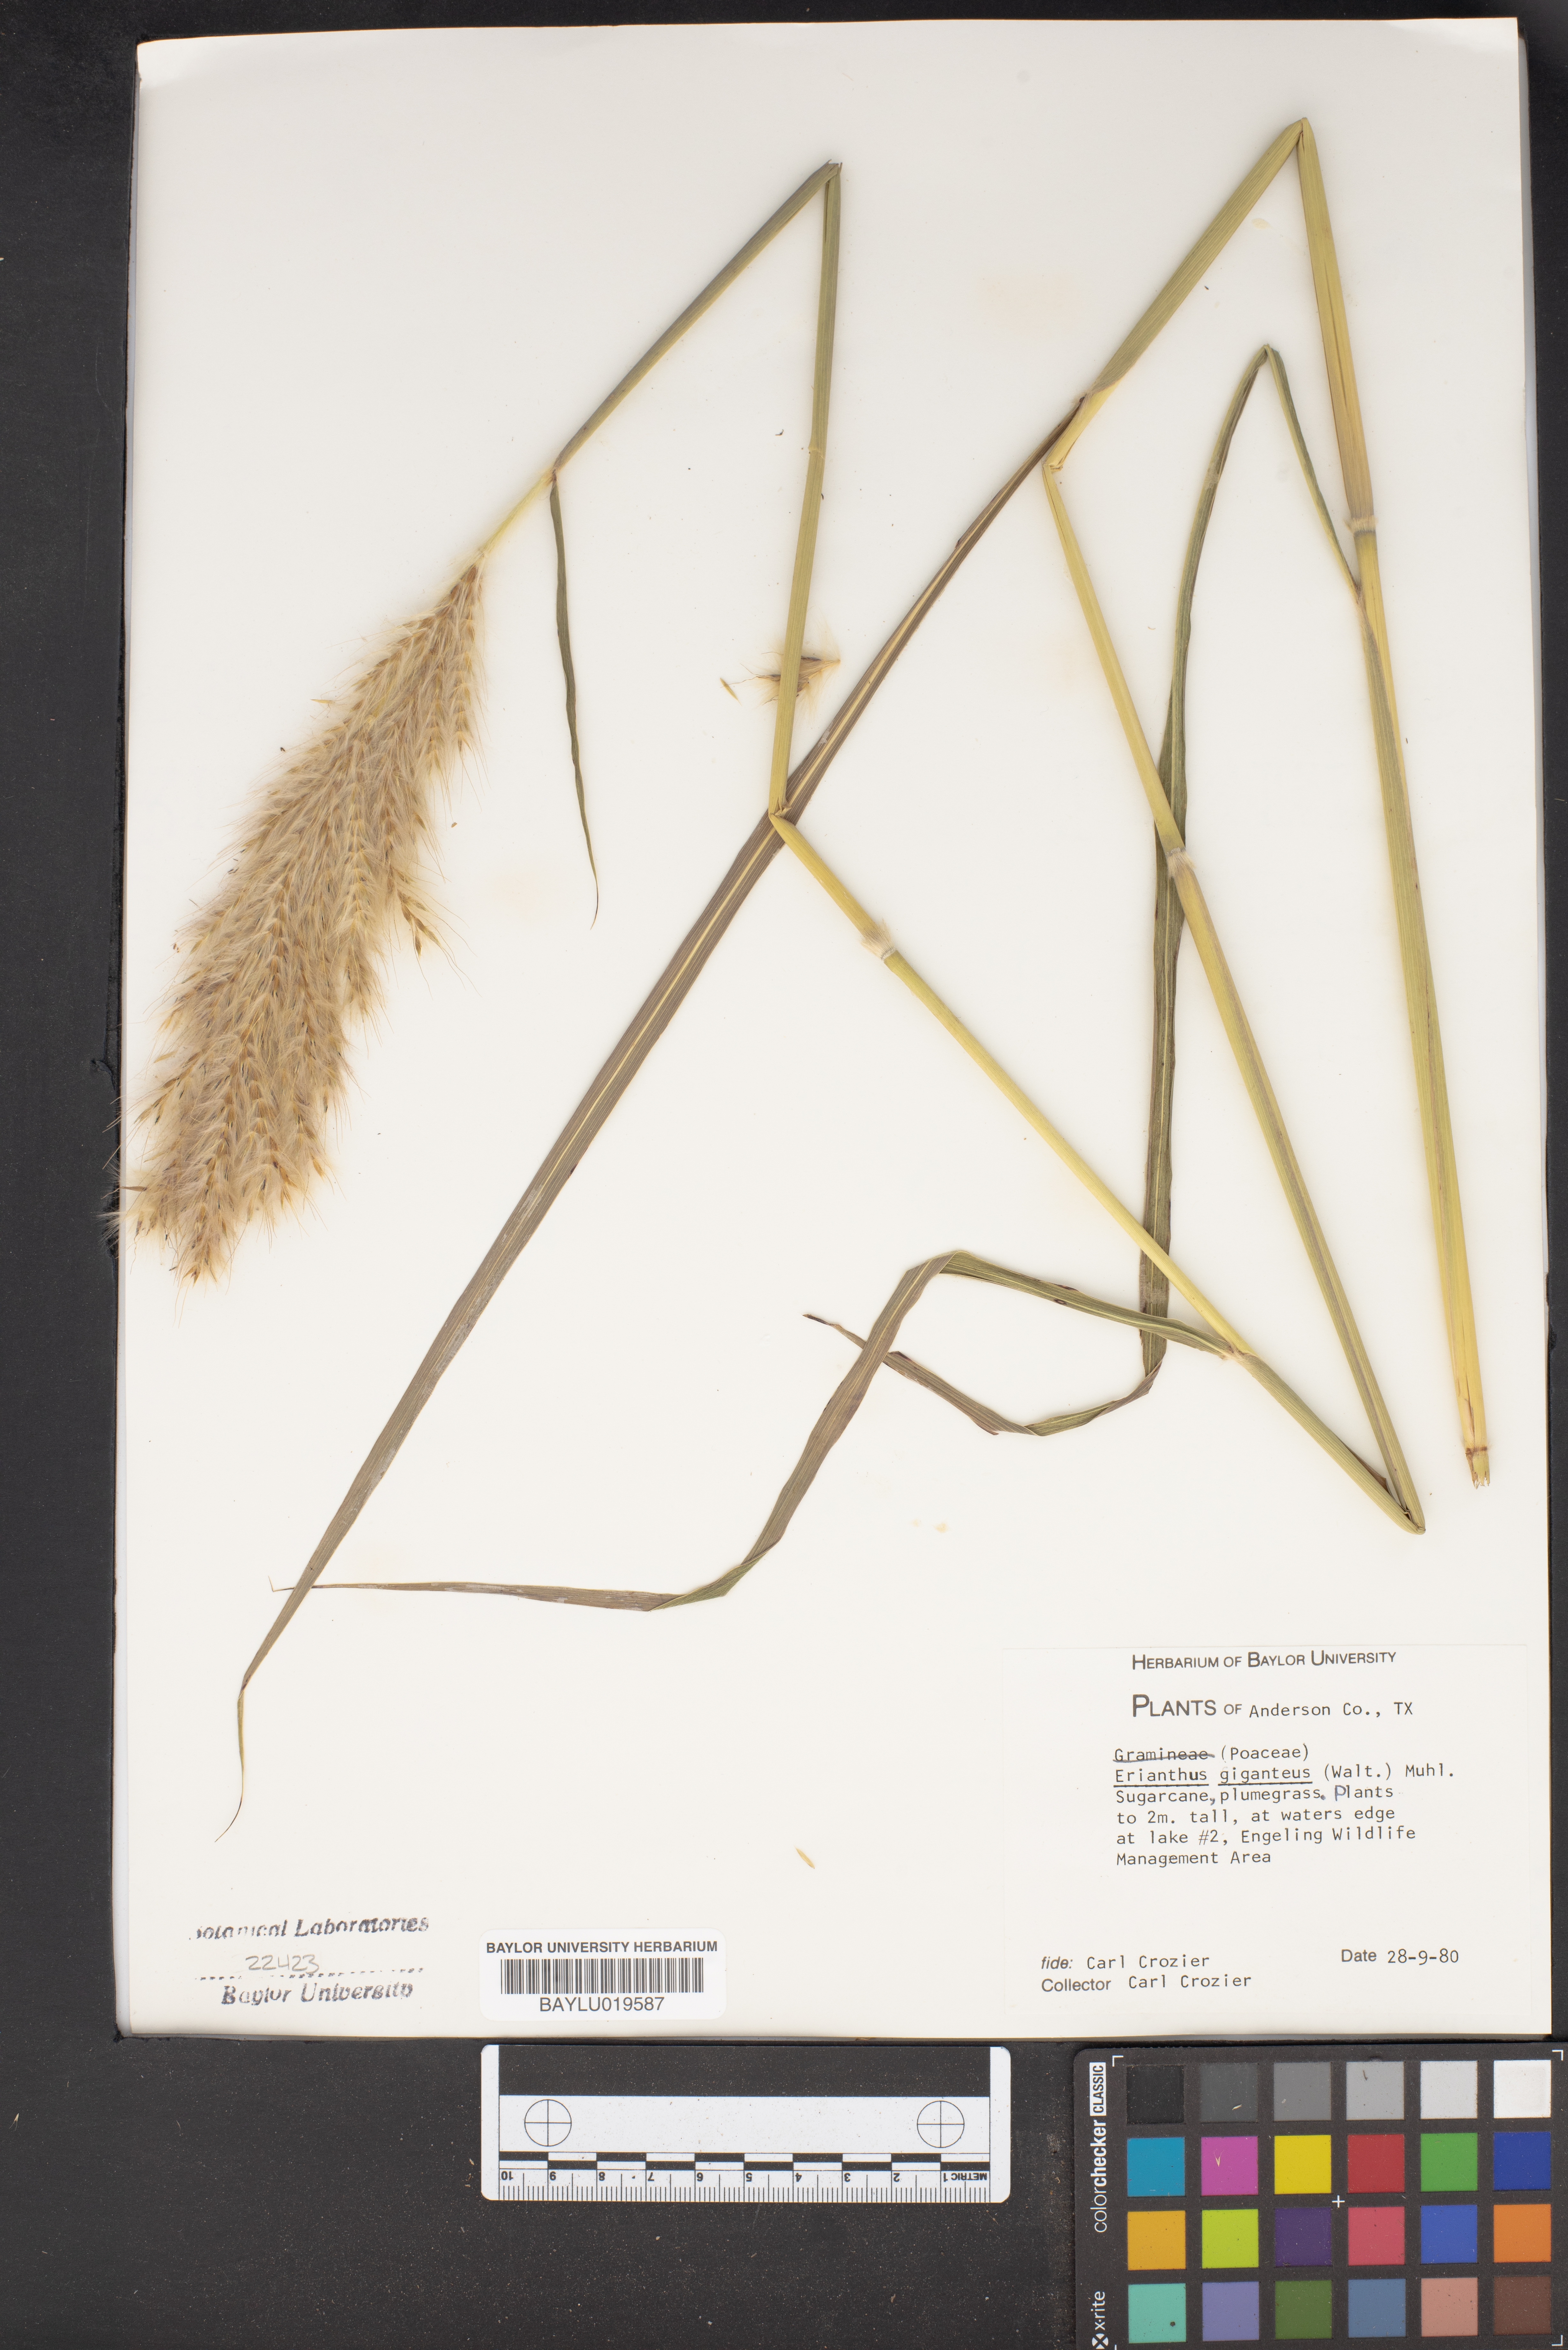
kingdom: Plantae
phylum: Tracheophyta
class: Liliopsida
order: Poales
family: Poaceae
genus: Erianthus
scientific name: Erianthus giganteus
